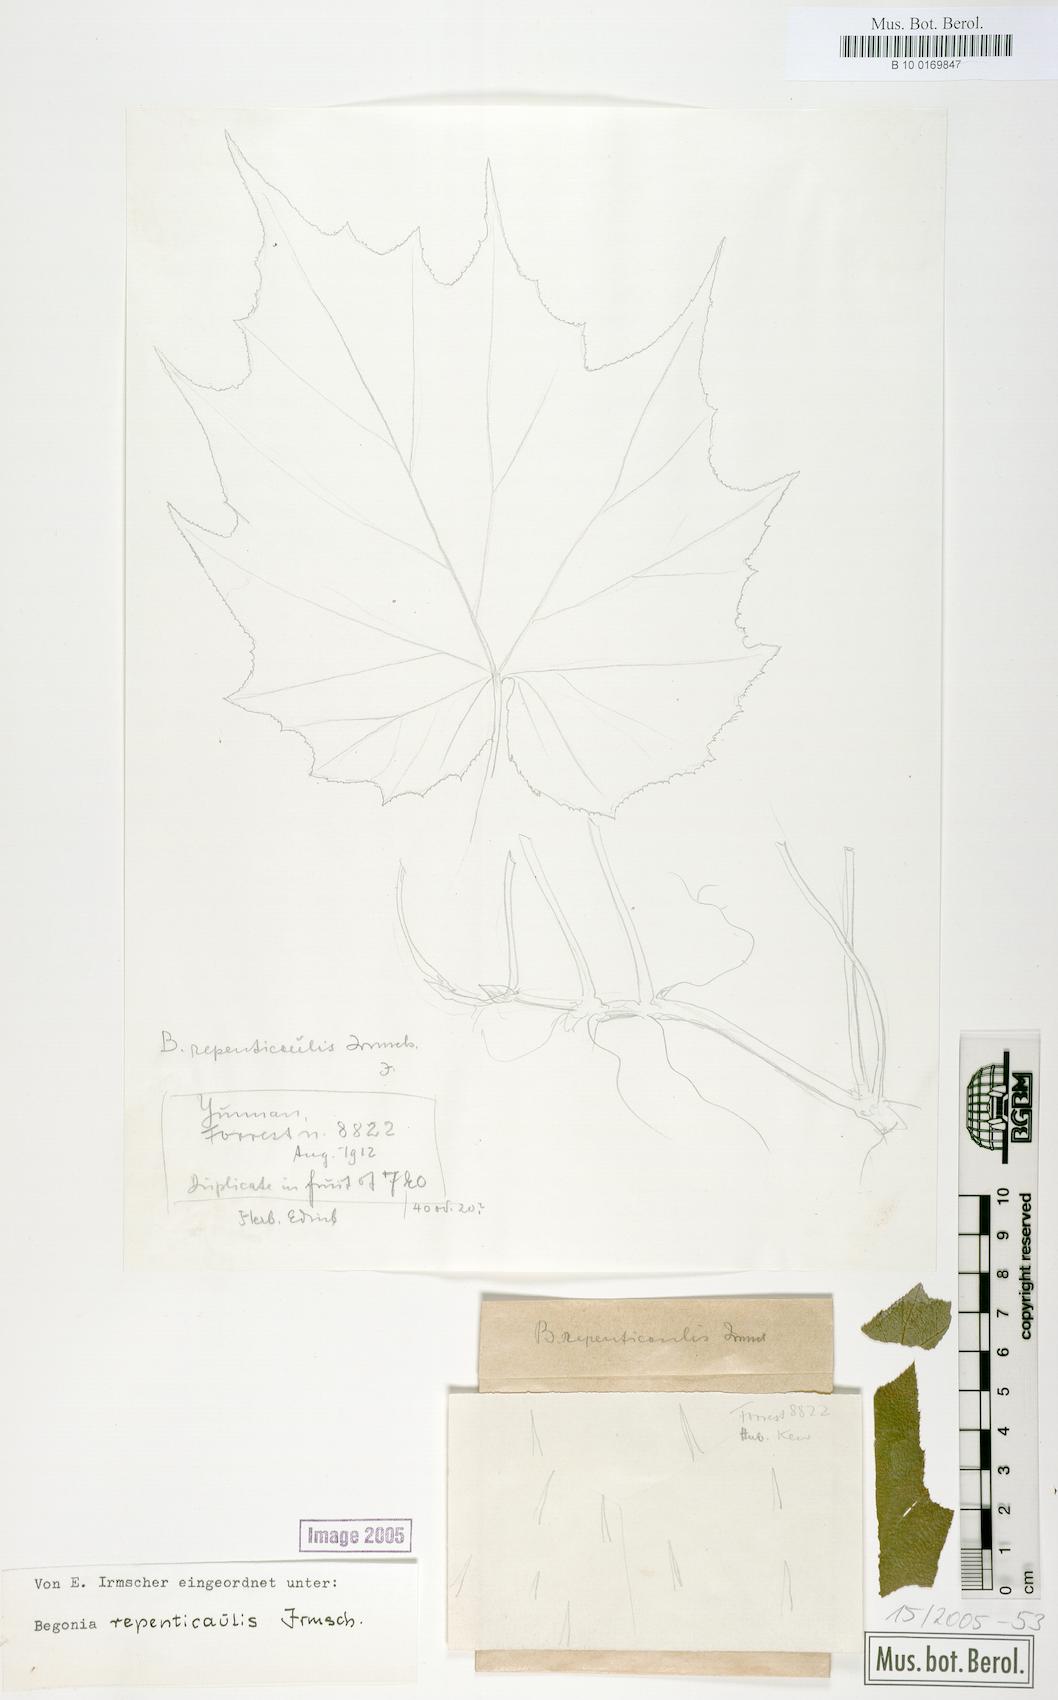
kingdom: Plantae
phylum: Tracheophyta
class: Magnoliopsida
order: Cucurbitales
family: Begoniaceae
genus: Begonia
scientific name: Begonia repenticaulis
